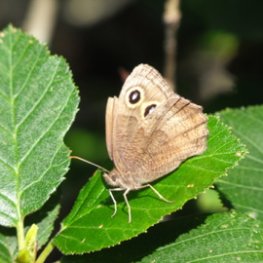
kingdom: Animalia
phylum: Arthropoda
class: Insecta
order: Lepidoptera
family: Nymphalidae
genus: Cercyonis
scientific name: Cercyonis pegala
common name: Common Wood-Nymph
